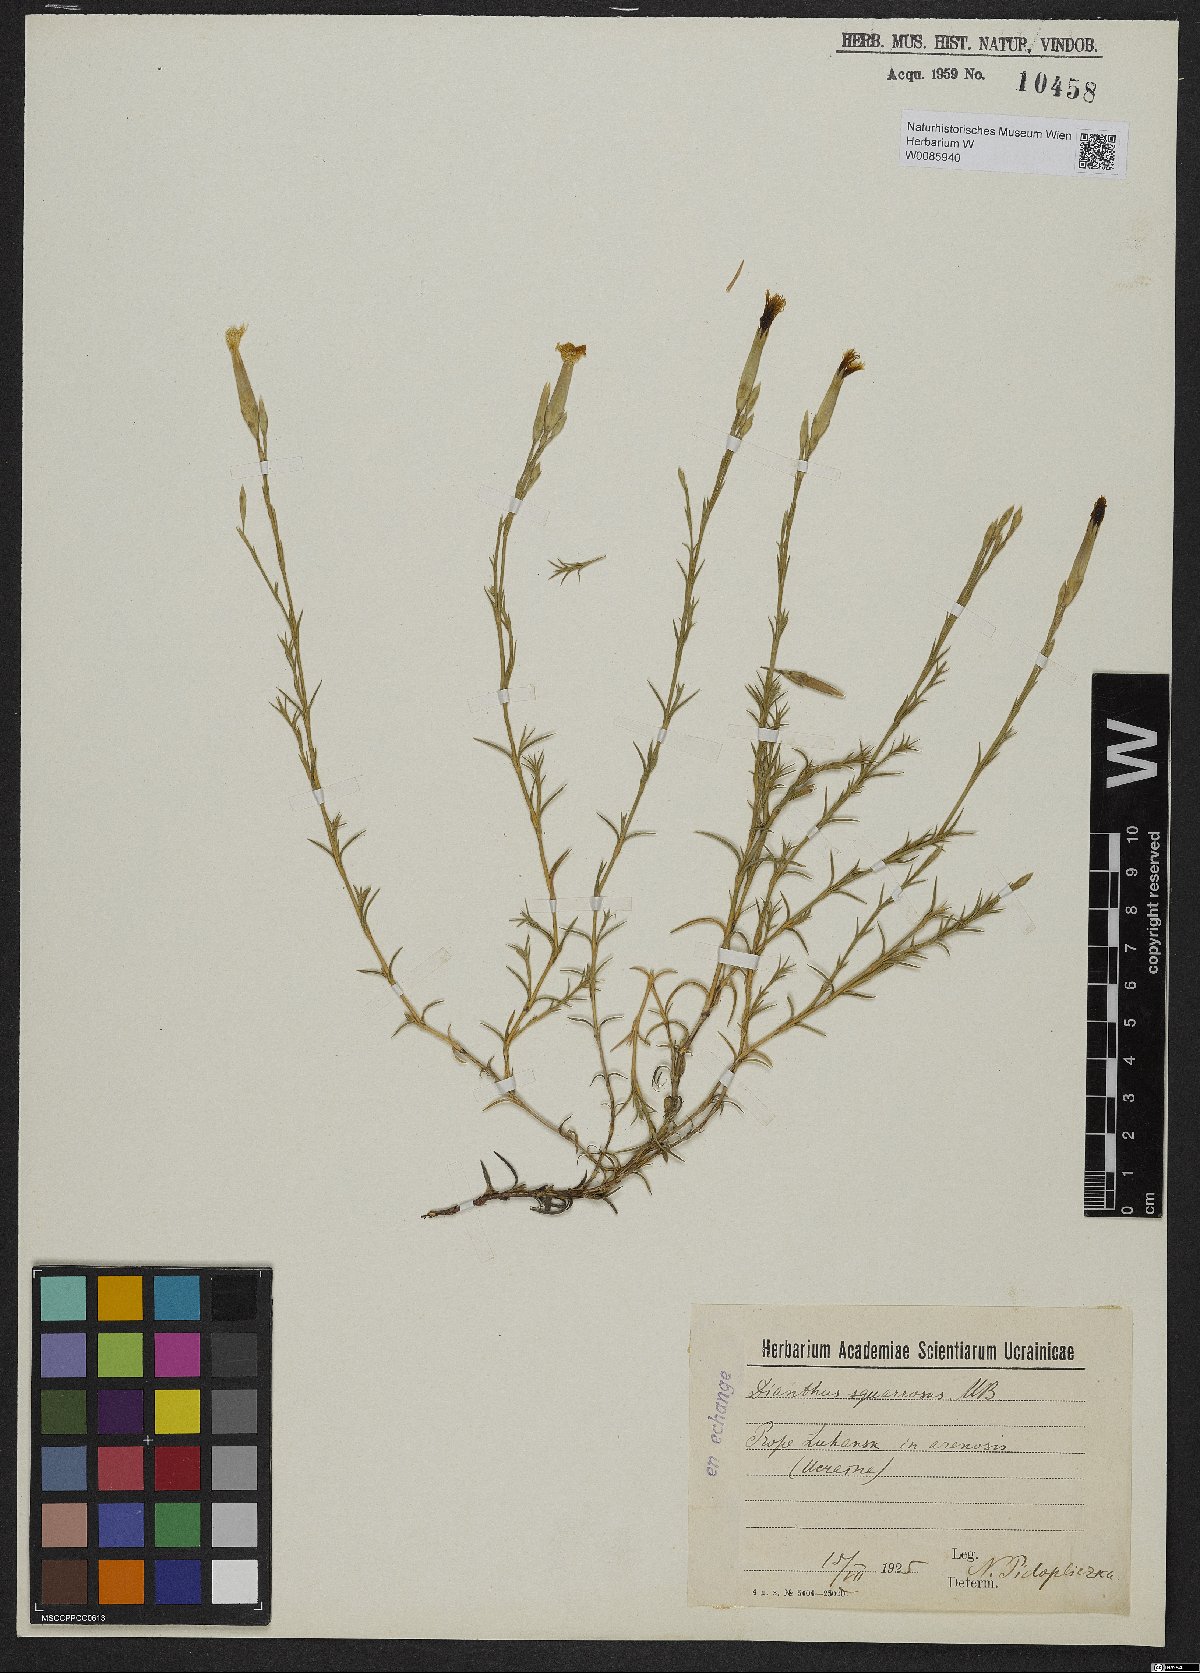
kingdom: Plantae
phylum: Tracheophyta
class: Magnoliopsida
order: Caryophyllales
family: Caryophyllaceae
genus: Dianthus
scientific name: Dianthus squarrosus
